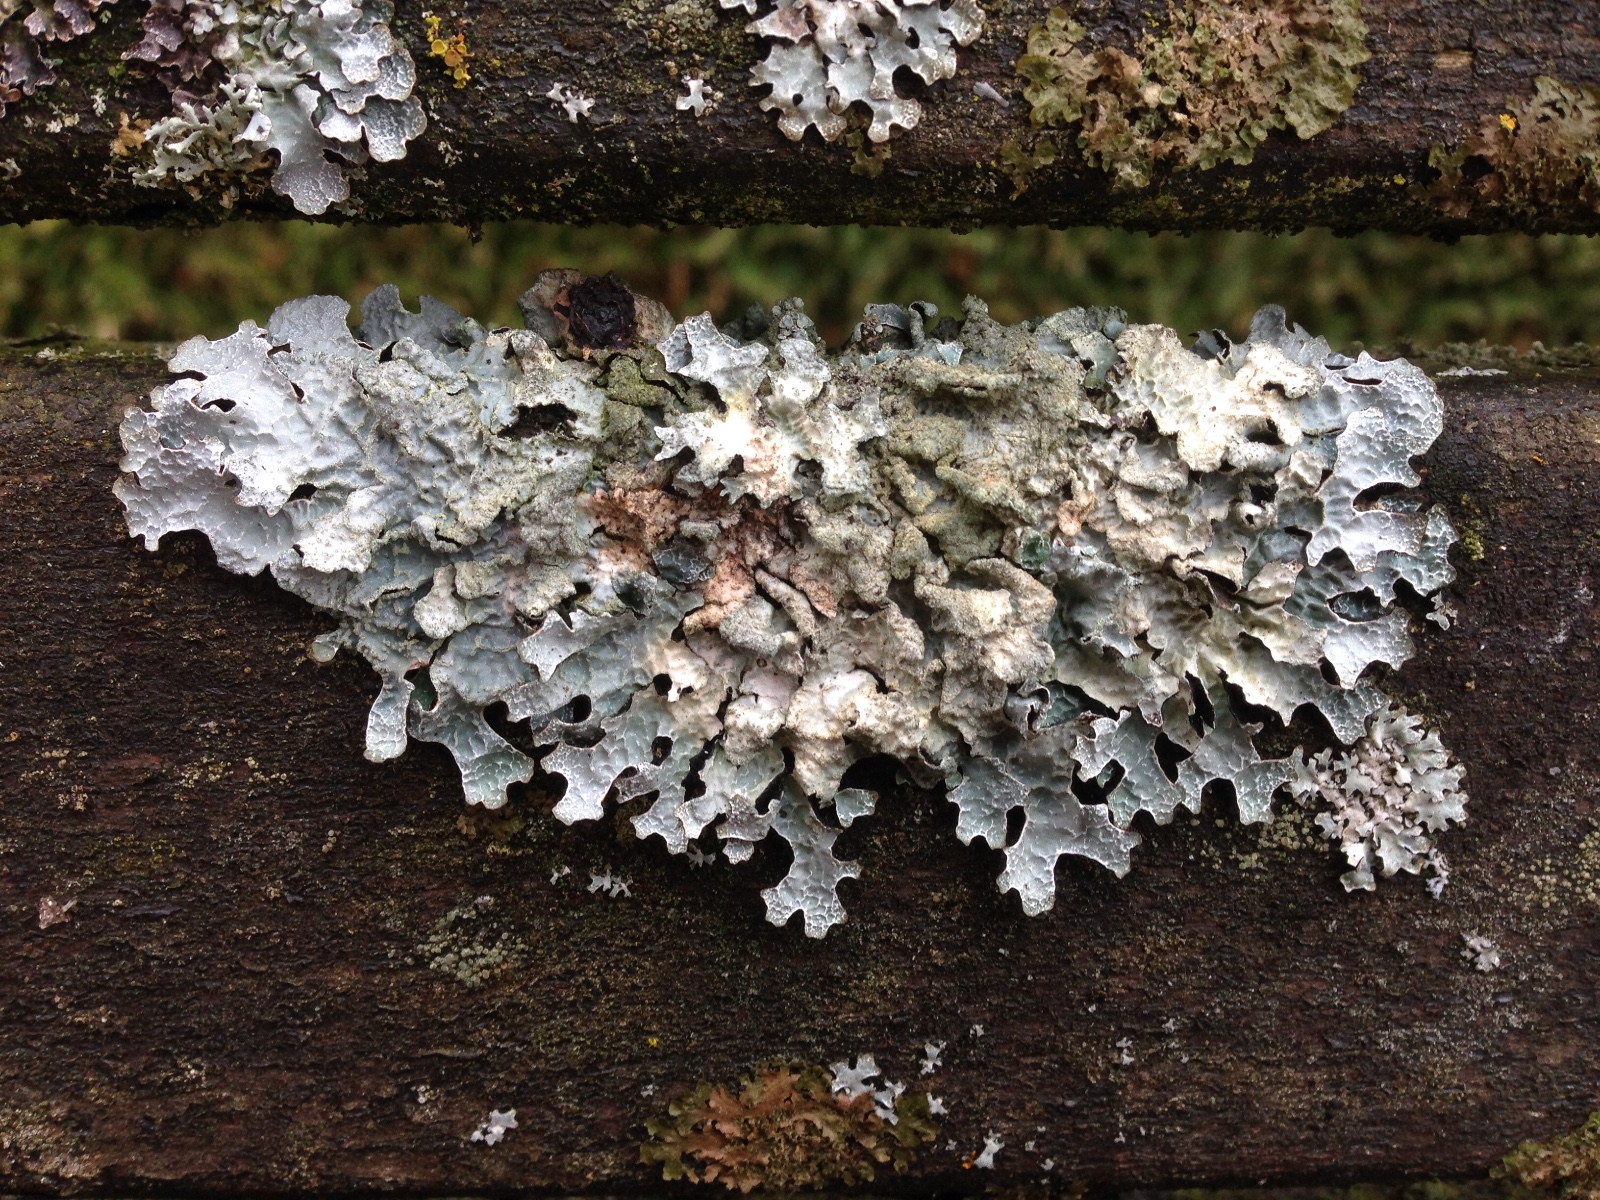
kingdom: Fungi
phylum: Ascomycota
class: Lecanoromycetes
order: Lecanorales
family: Parmeliaceae
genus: Parmelia
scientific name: Parmelia sulcata
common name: rynket skållav
